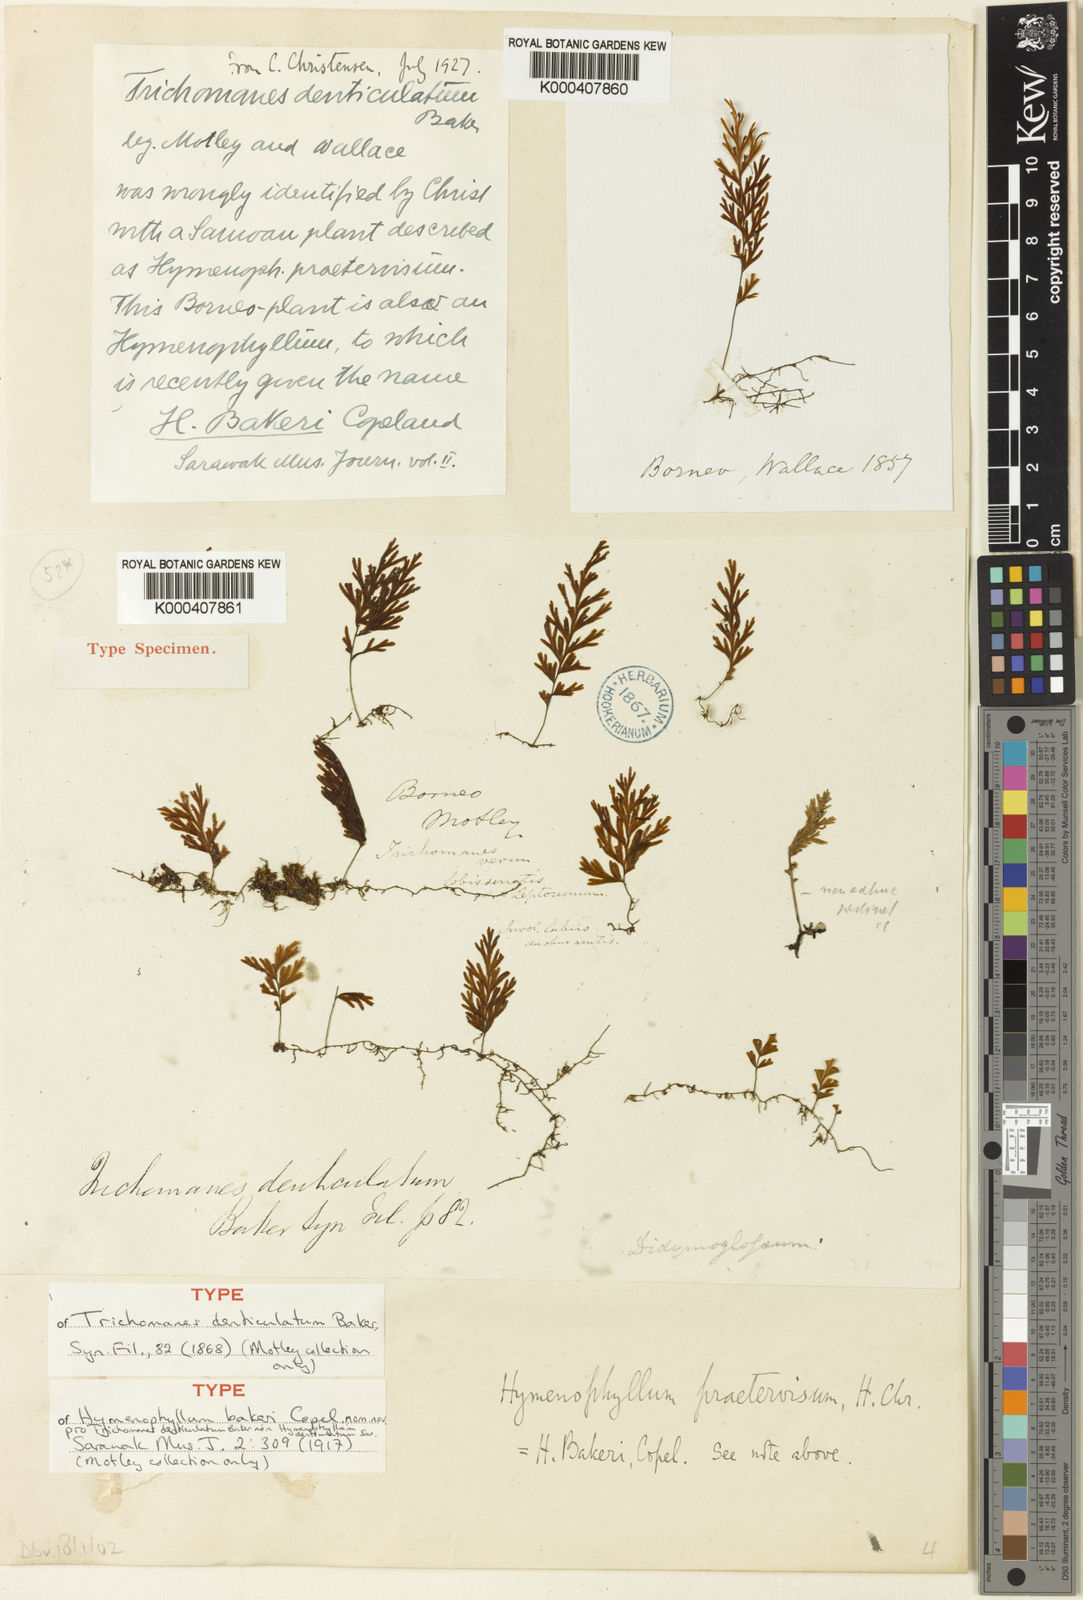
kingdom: Plantae
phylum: Tracheophyta
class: Polypodiopsida
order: Hymenophyllales
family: Hymenophyllaceae
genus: Hymenophyllum
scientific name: Hymenophyllum edentulum
